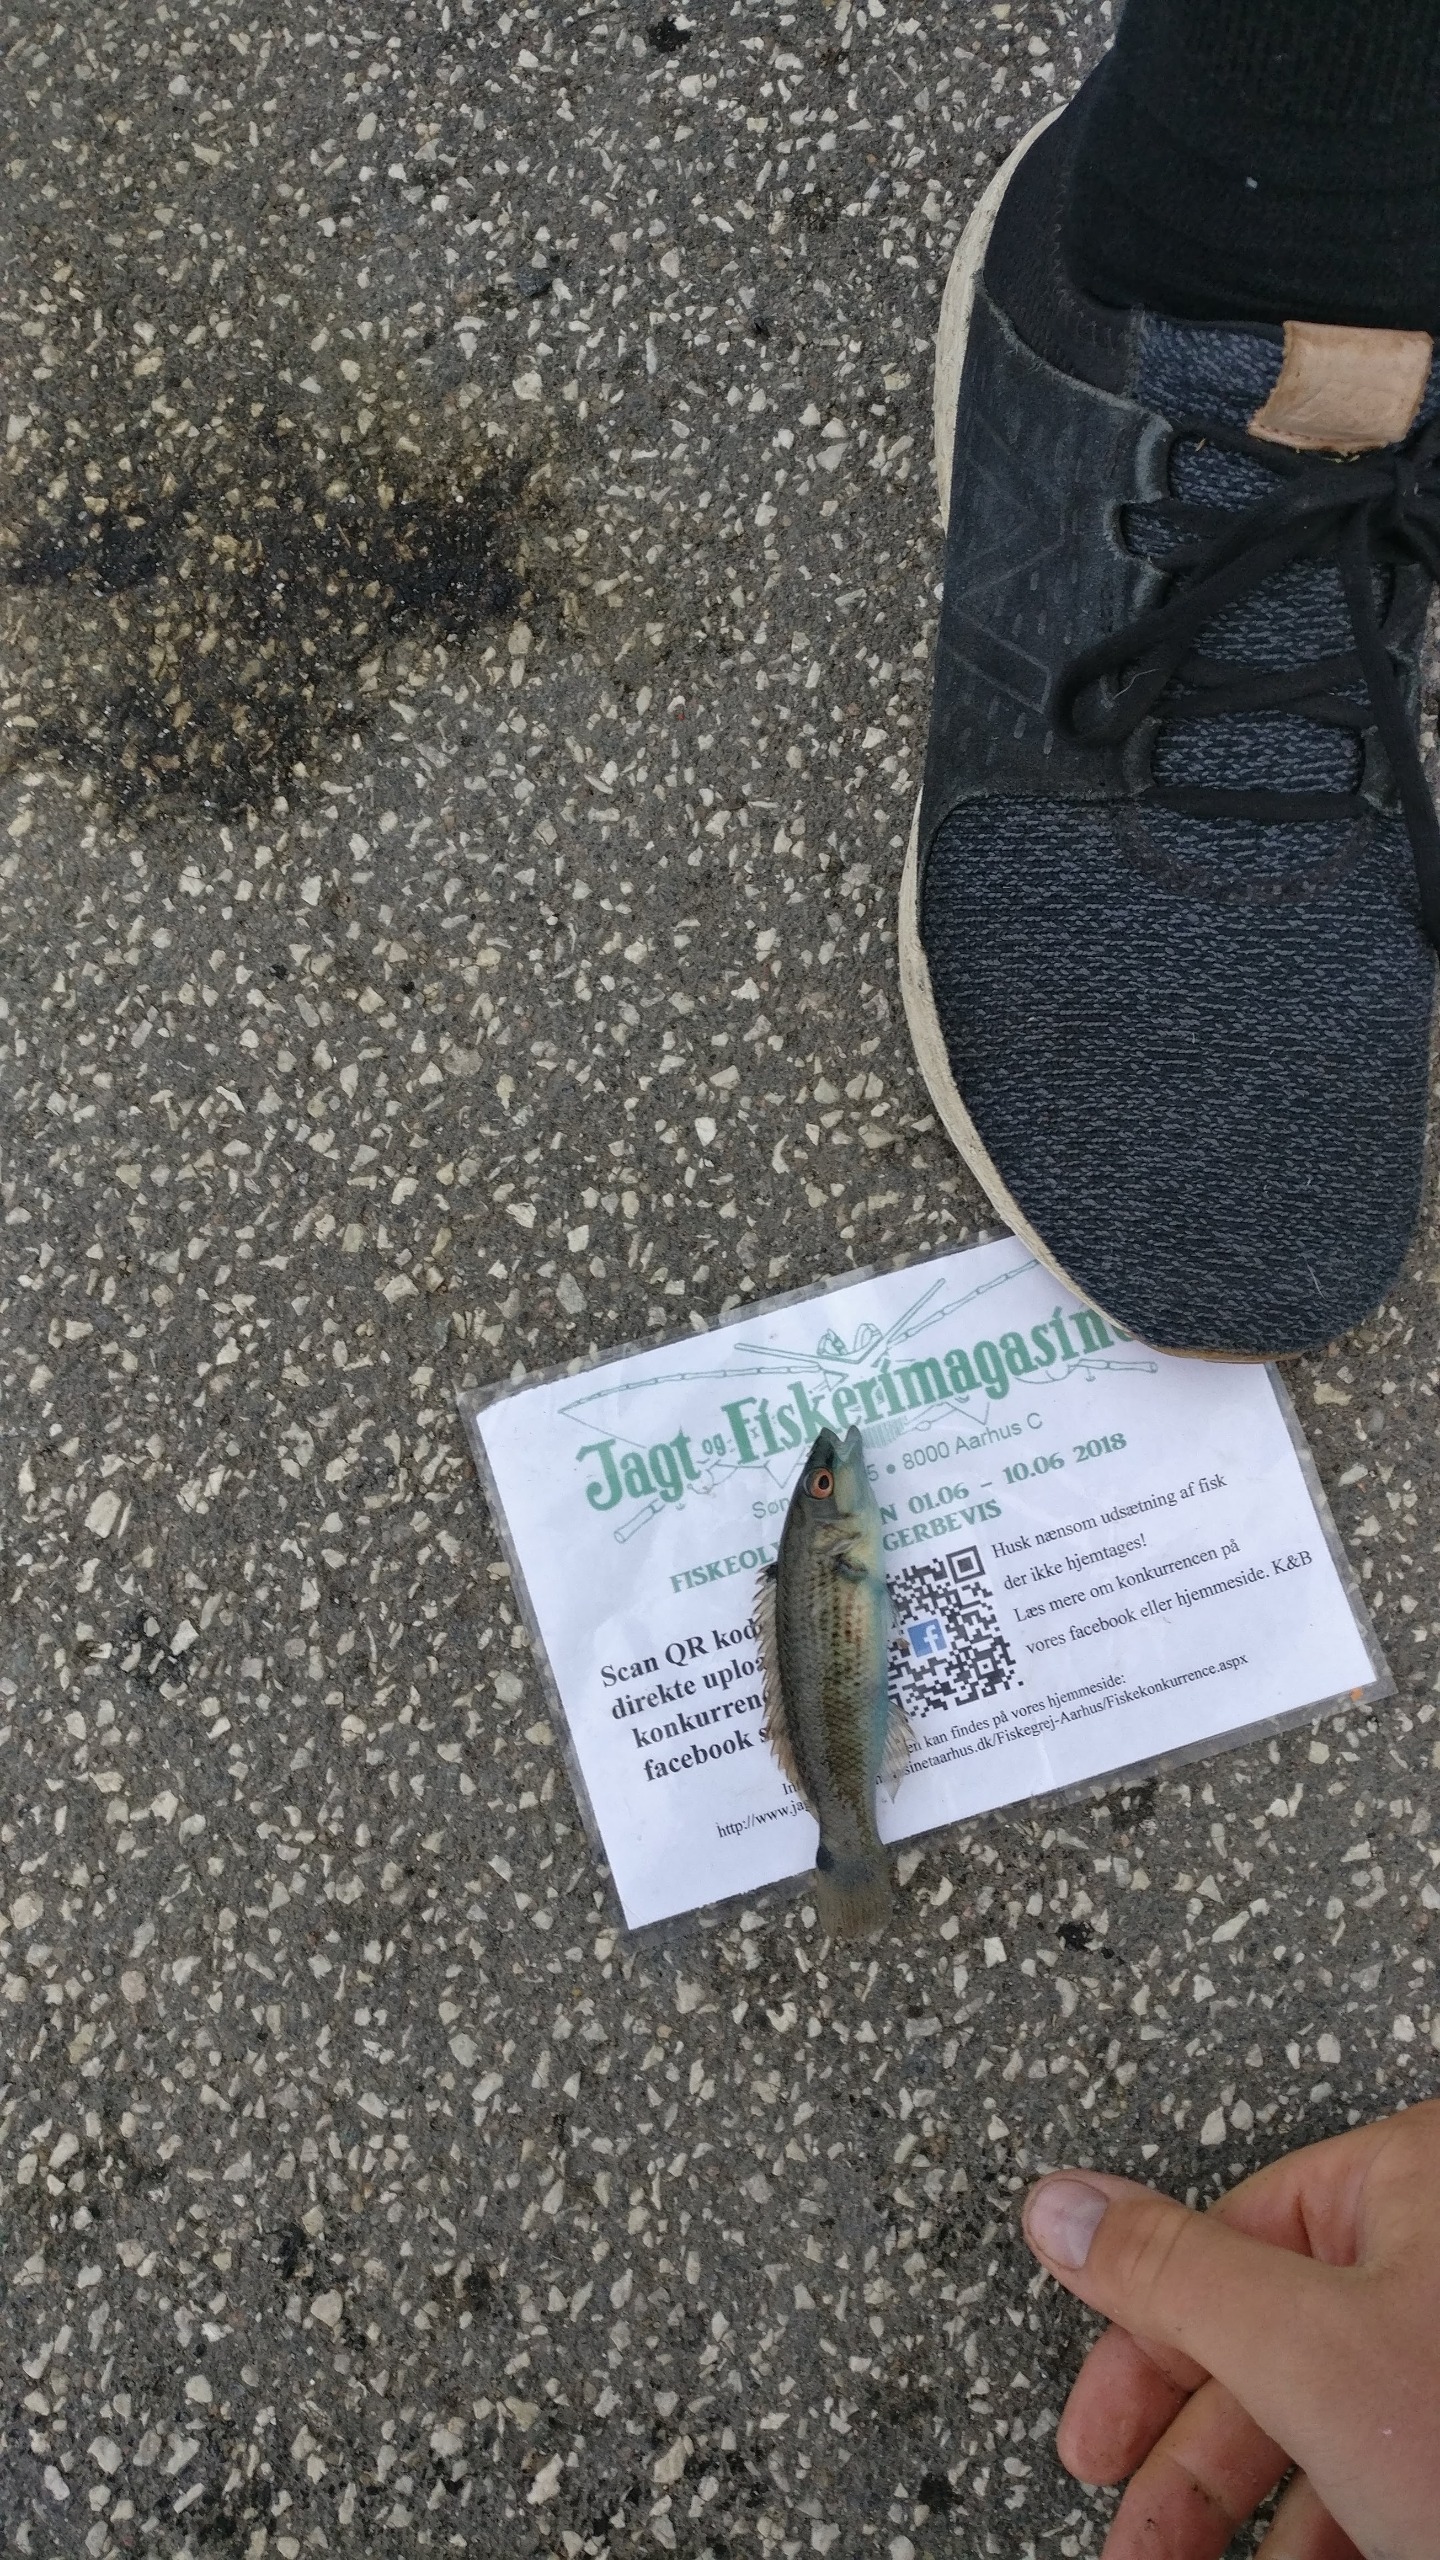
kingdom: Animalia
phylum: Chordata
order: Perciformes
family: Labridae
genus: Ctenolabrus
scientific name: Ctenolabrus rupestris
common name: Havkarusse
